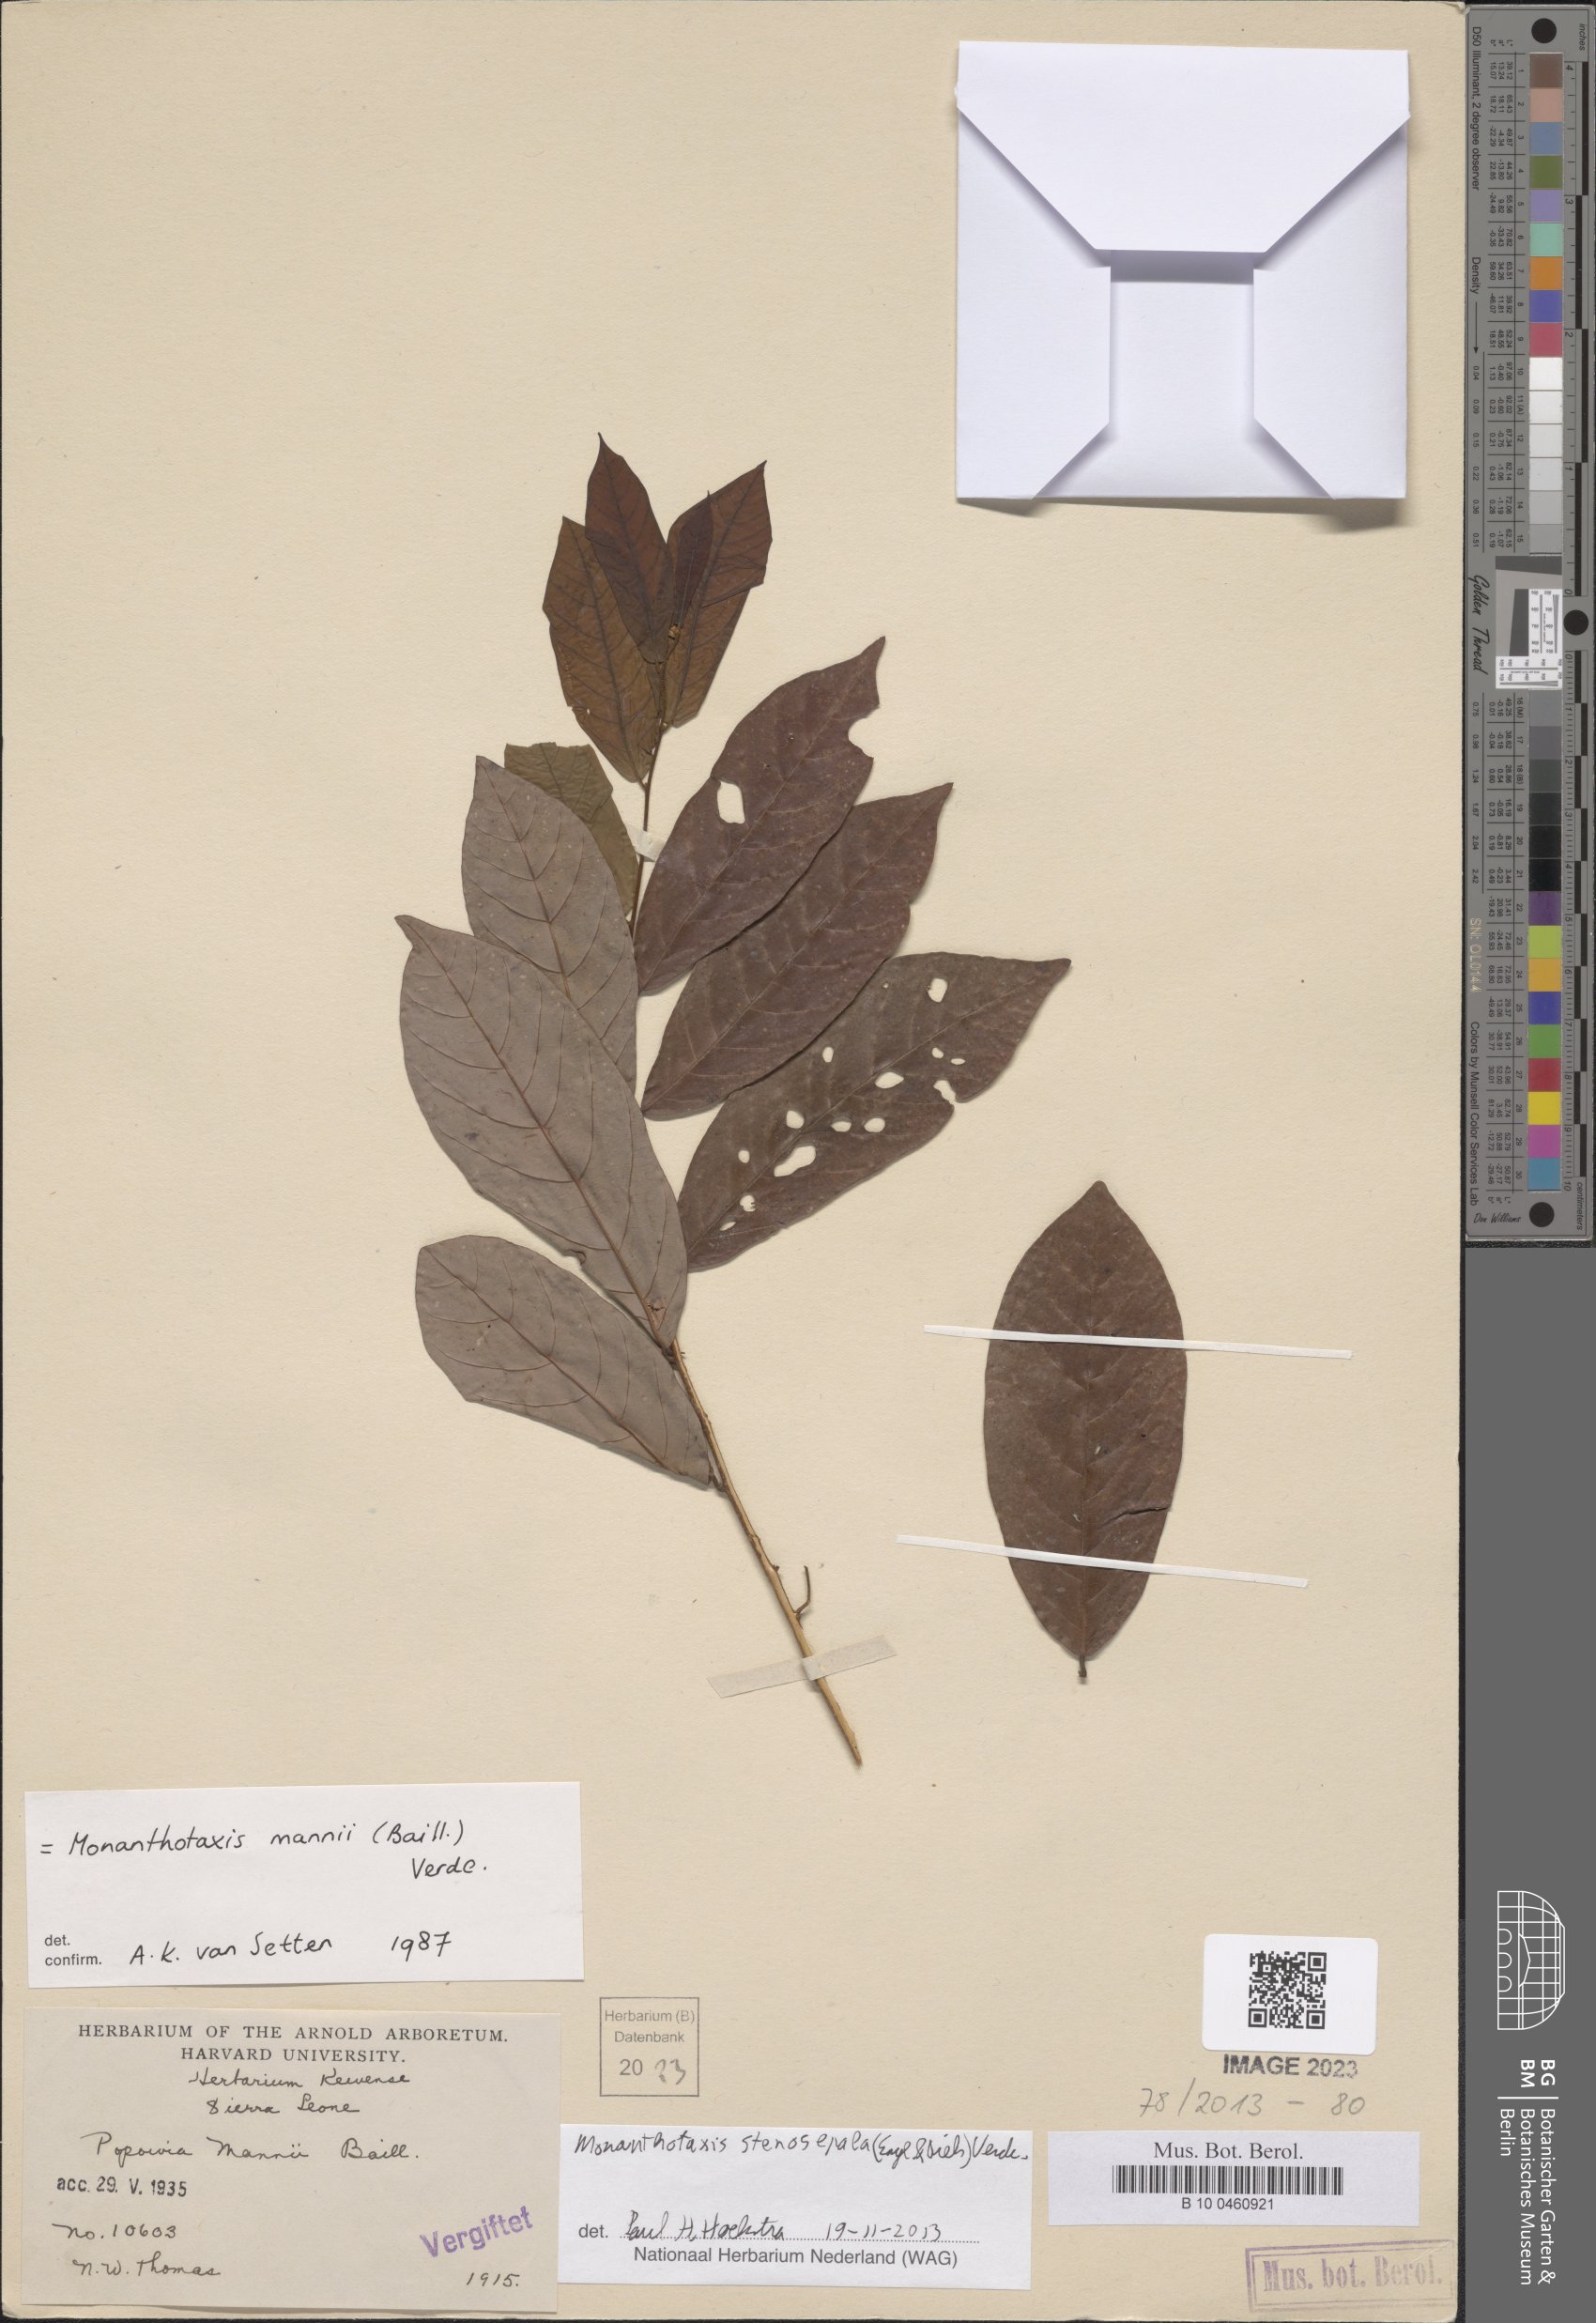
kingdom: Plantae
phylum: Tracheophyta
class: Magnoliopsida
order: Magnoliales
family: Annonaceae
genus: Monanthotaxis
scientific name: Monanthotaxis stenosepala
